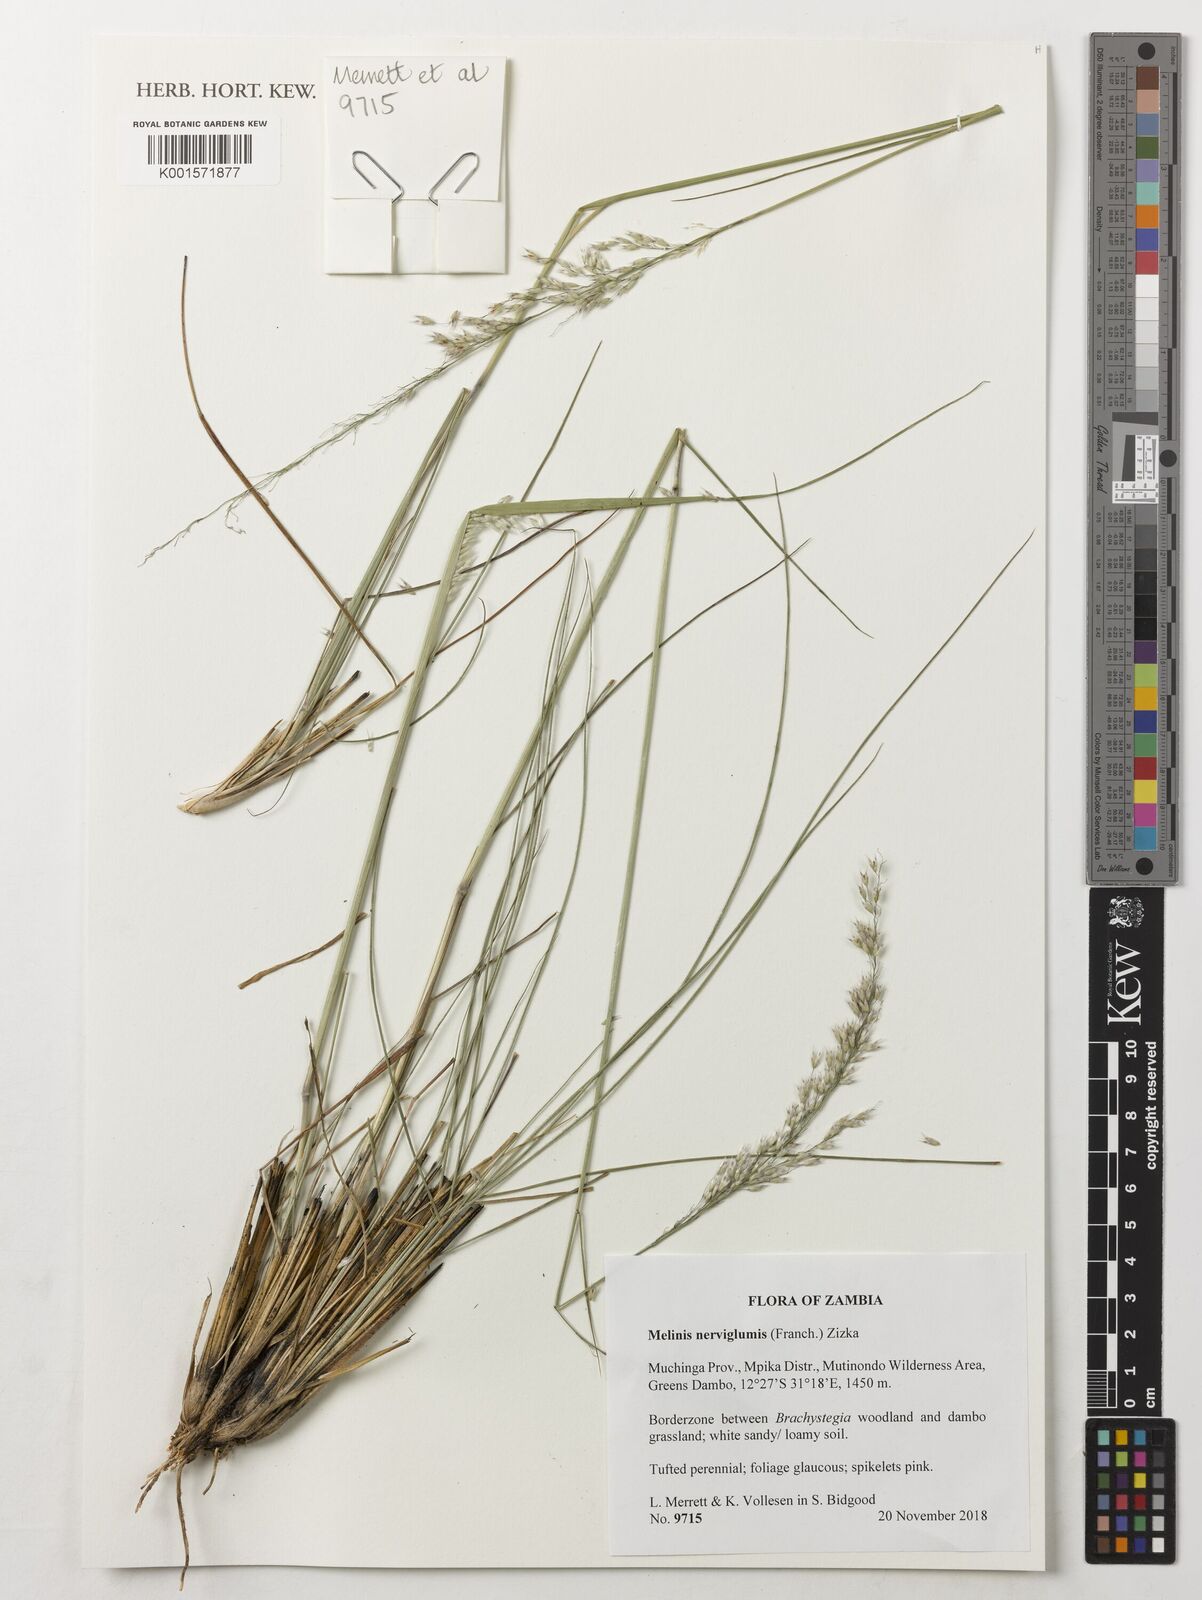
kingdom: Plantae
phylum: Tracheophyta
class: Liliopsida
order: Poales
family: Poaceae
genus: Melinis
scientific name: Melinis nerviglumis
